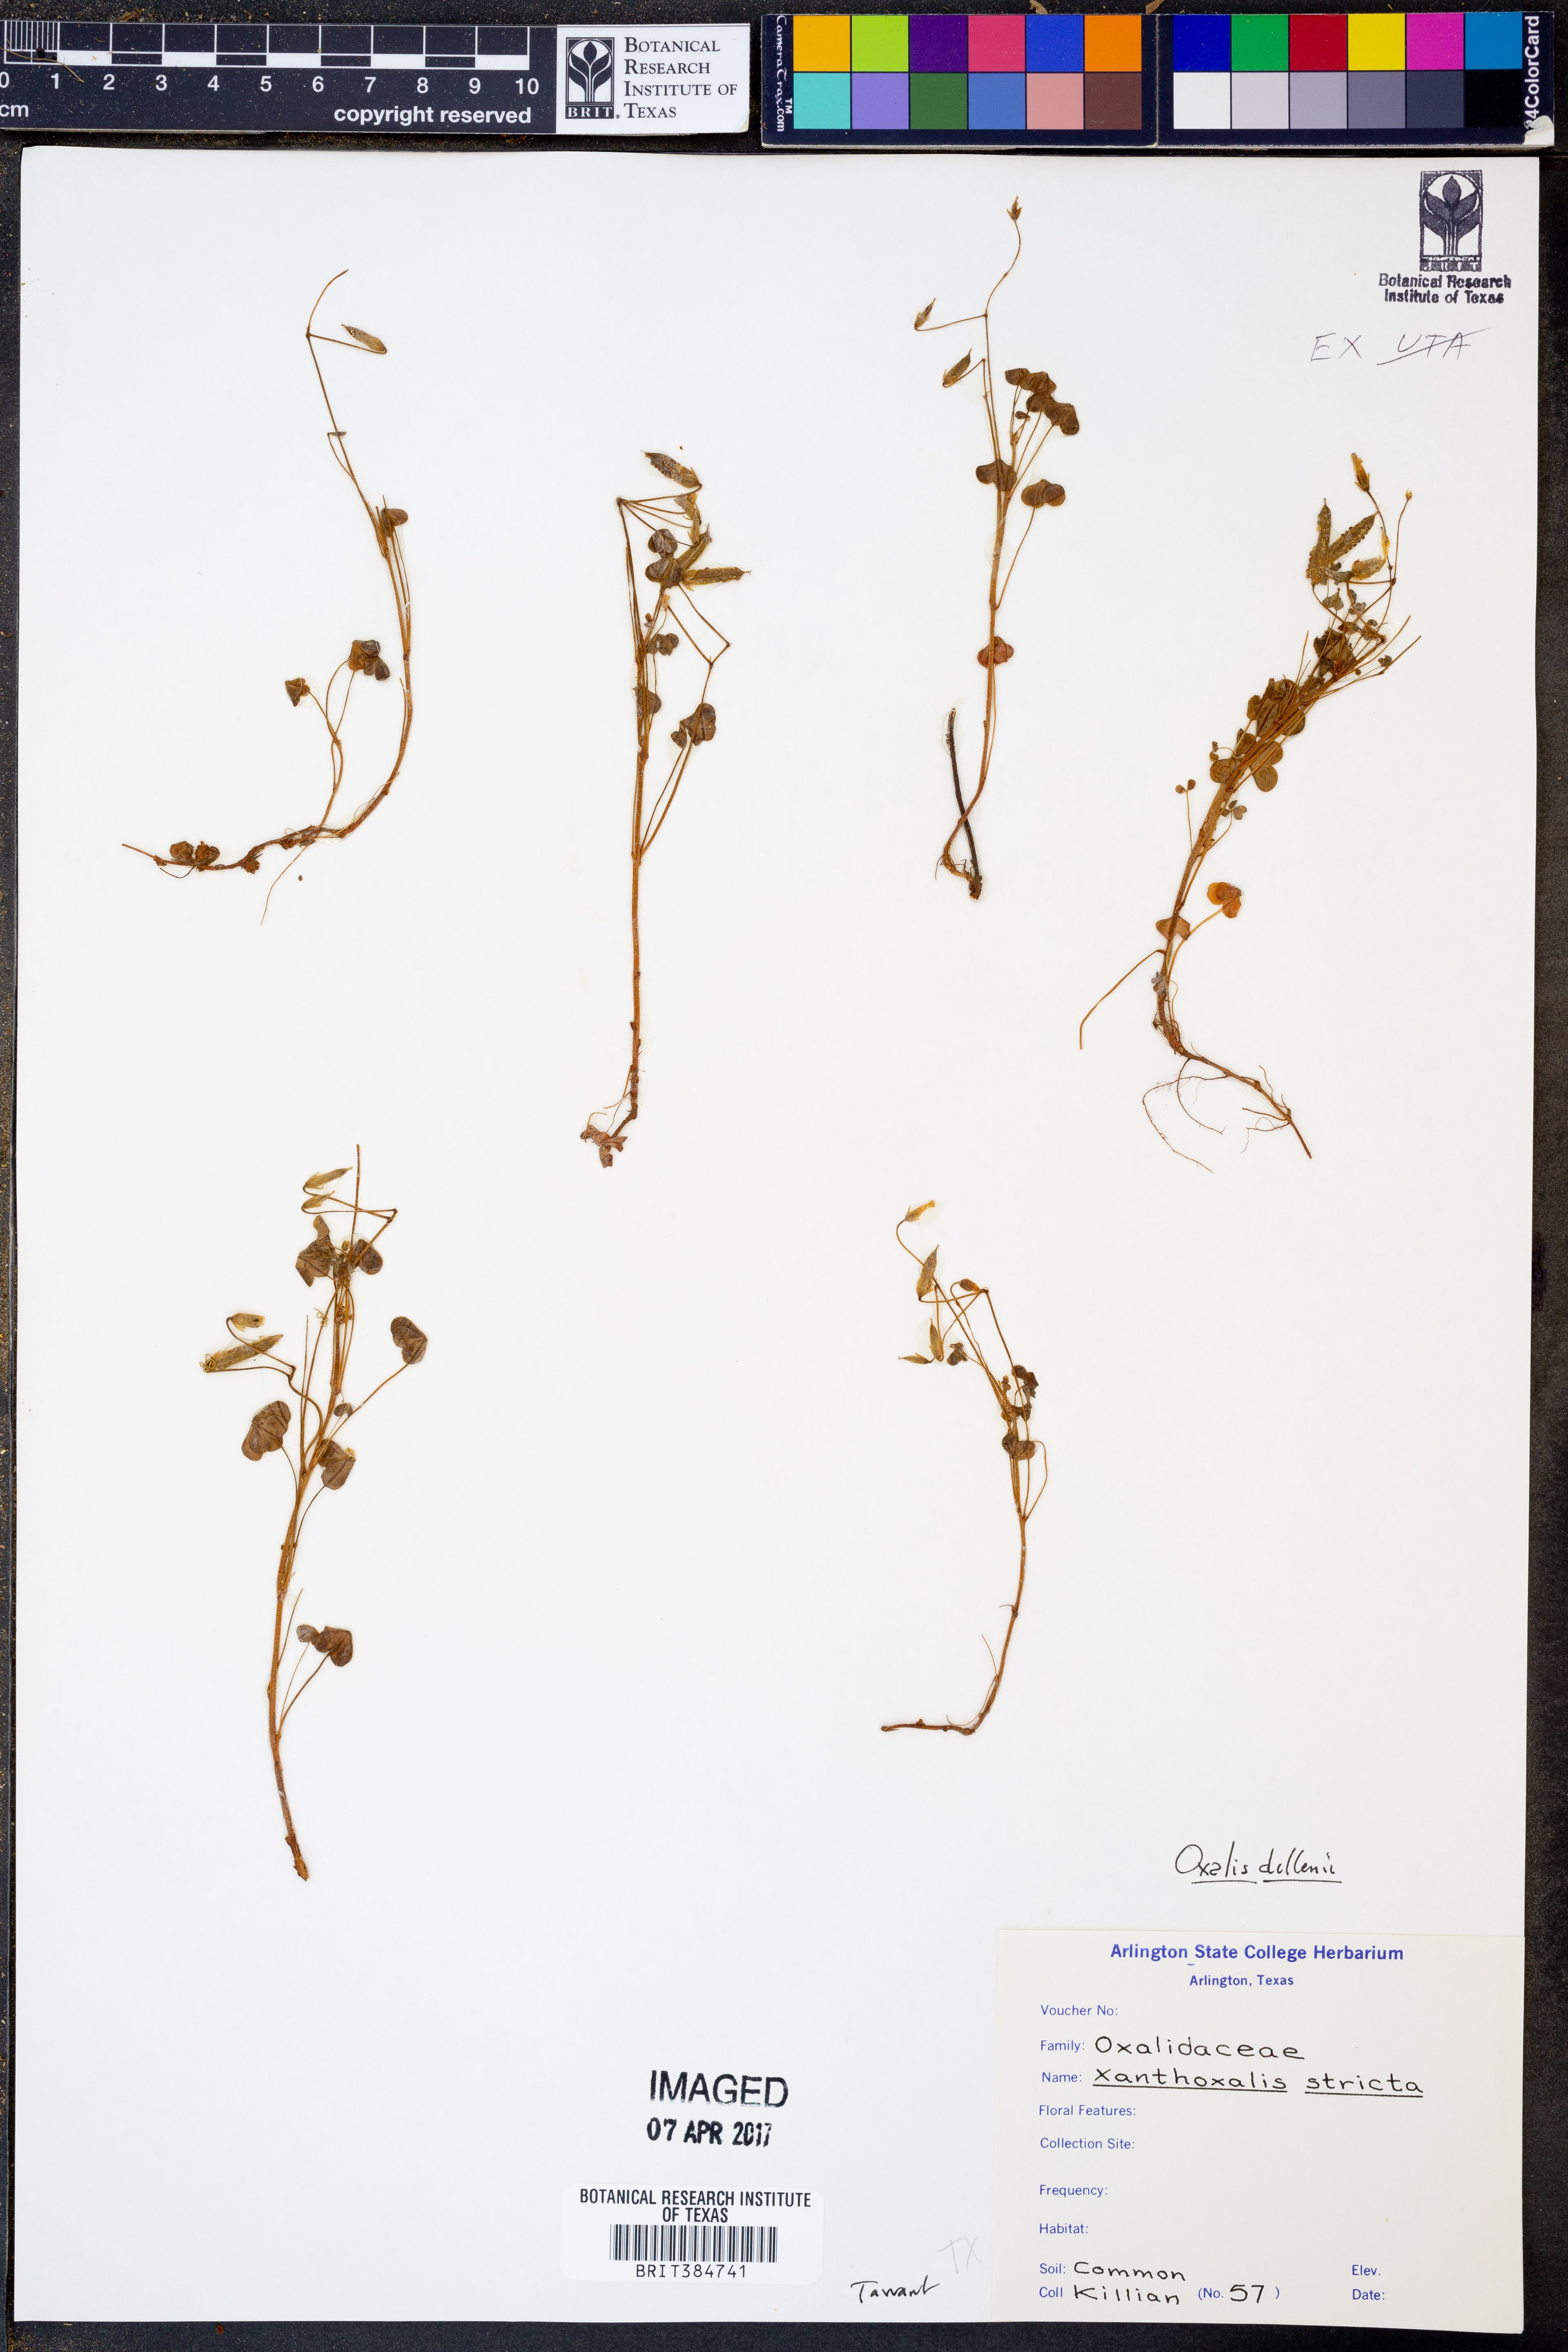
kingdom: Plantae
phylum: Tracheophyta
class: Magnoliopsida
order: Oxalidales
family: Oxalidaceae
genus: Oxalis
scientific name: Oxalis dillenii
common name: Sussex yellow-sorrel
